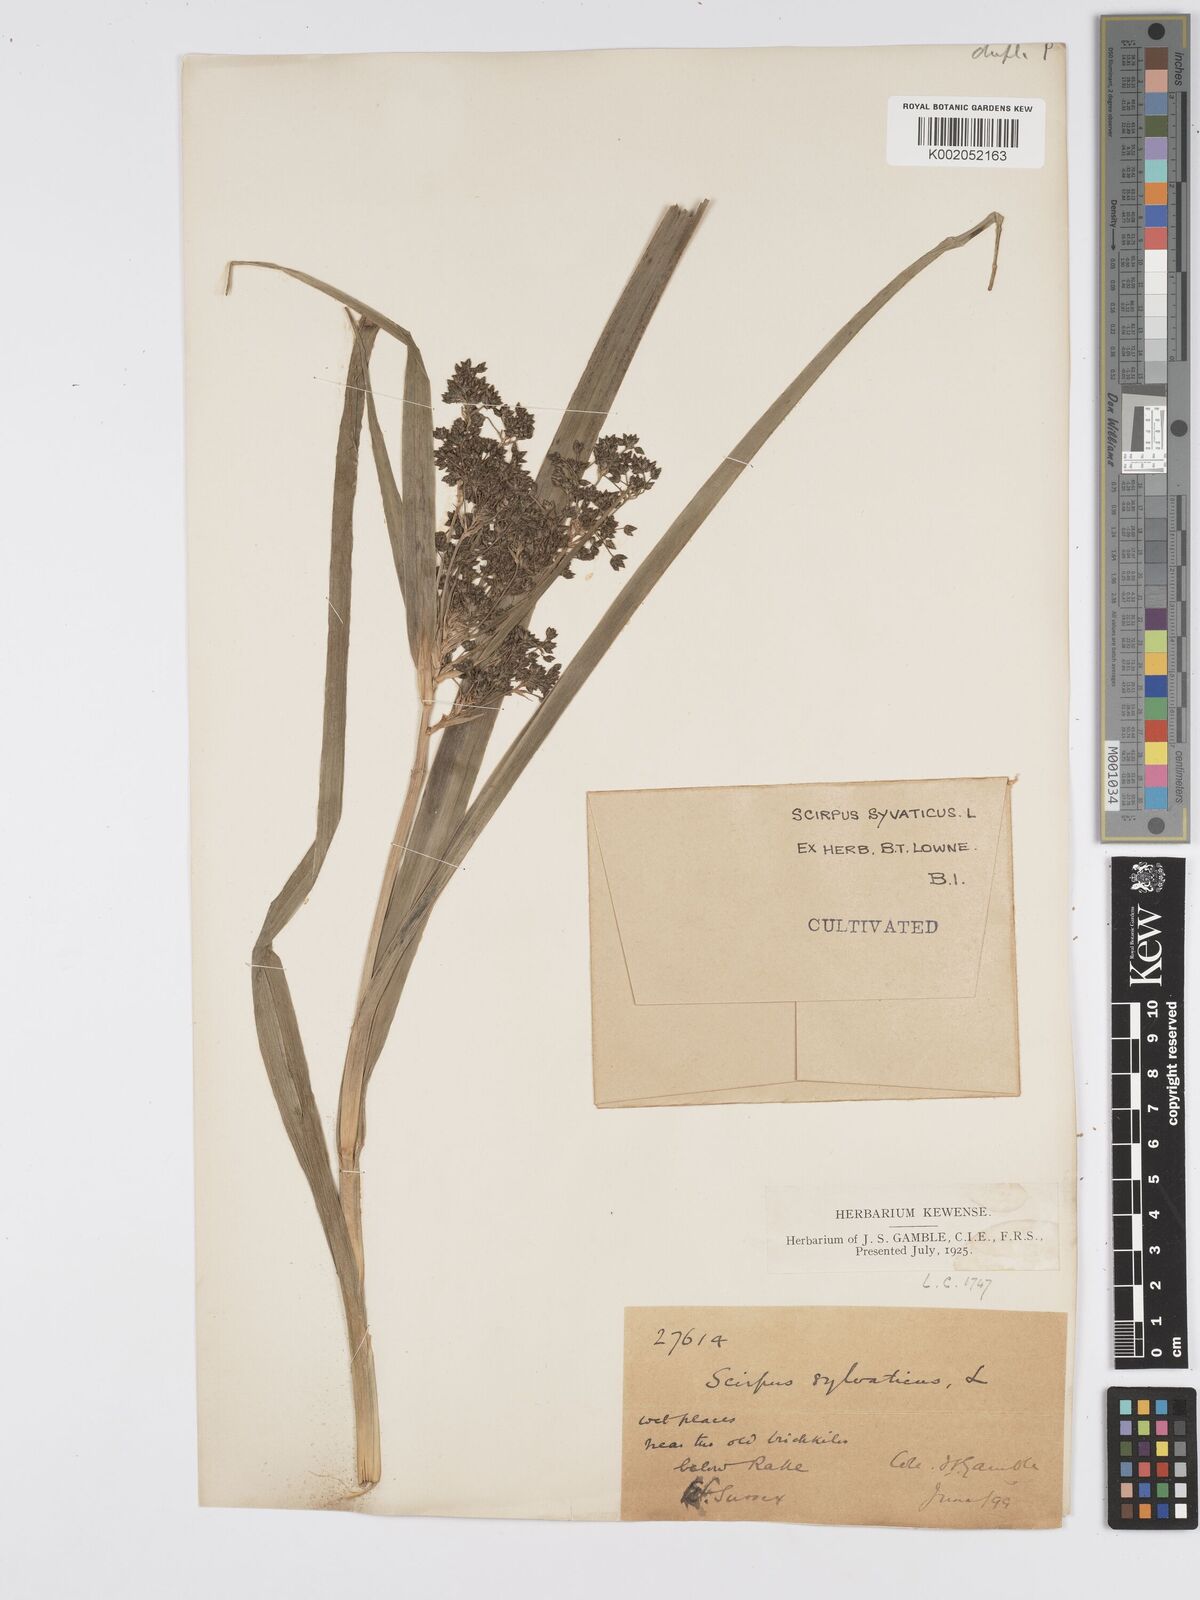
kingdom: Plantae
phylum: Tracheophyta
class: Liliopsida
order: Poales
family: Cyperaceae
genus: Scirpus
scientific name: Scirpus sylvaticus
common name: Wood club-rush
